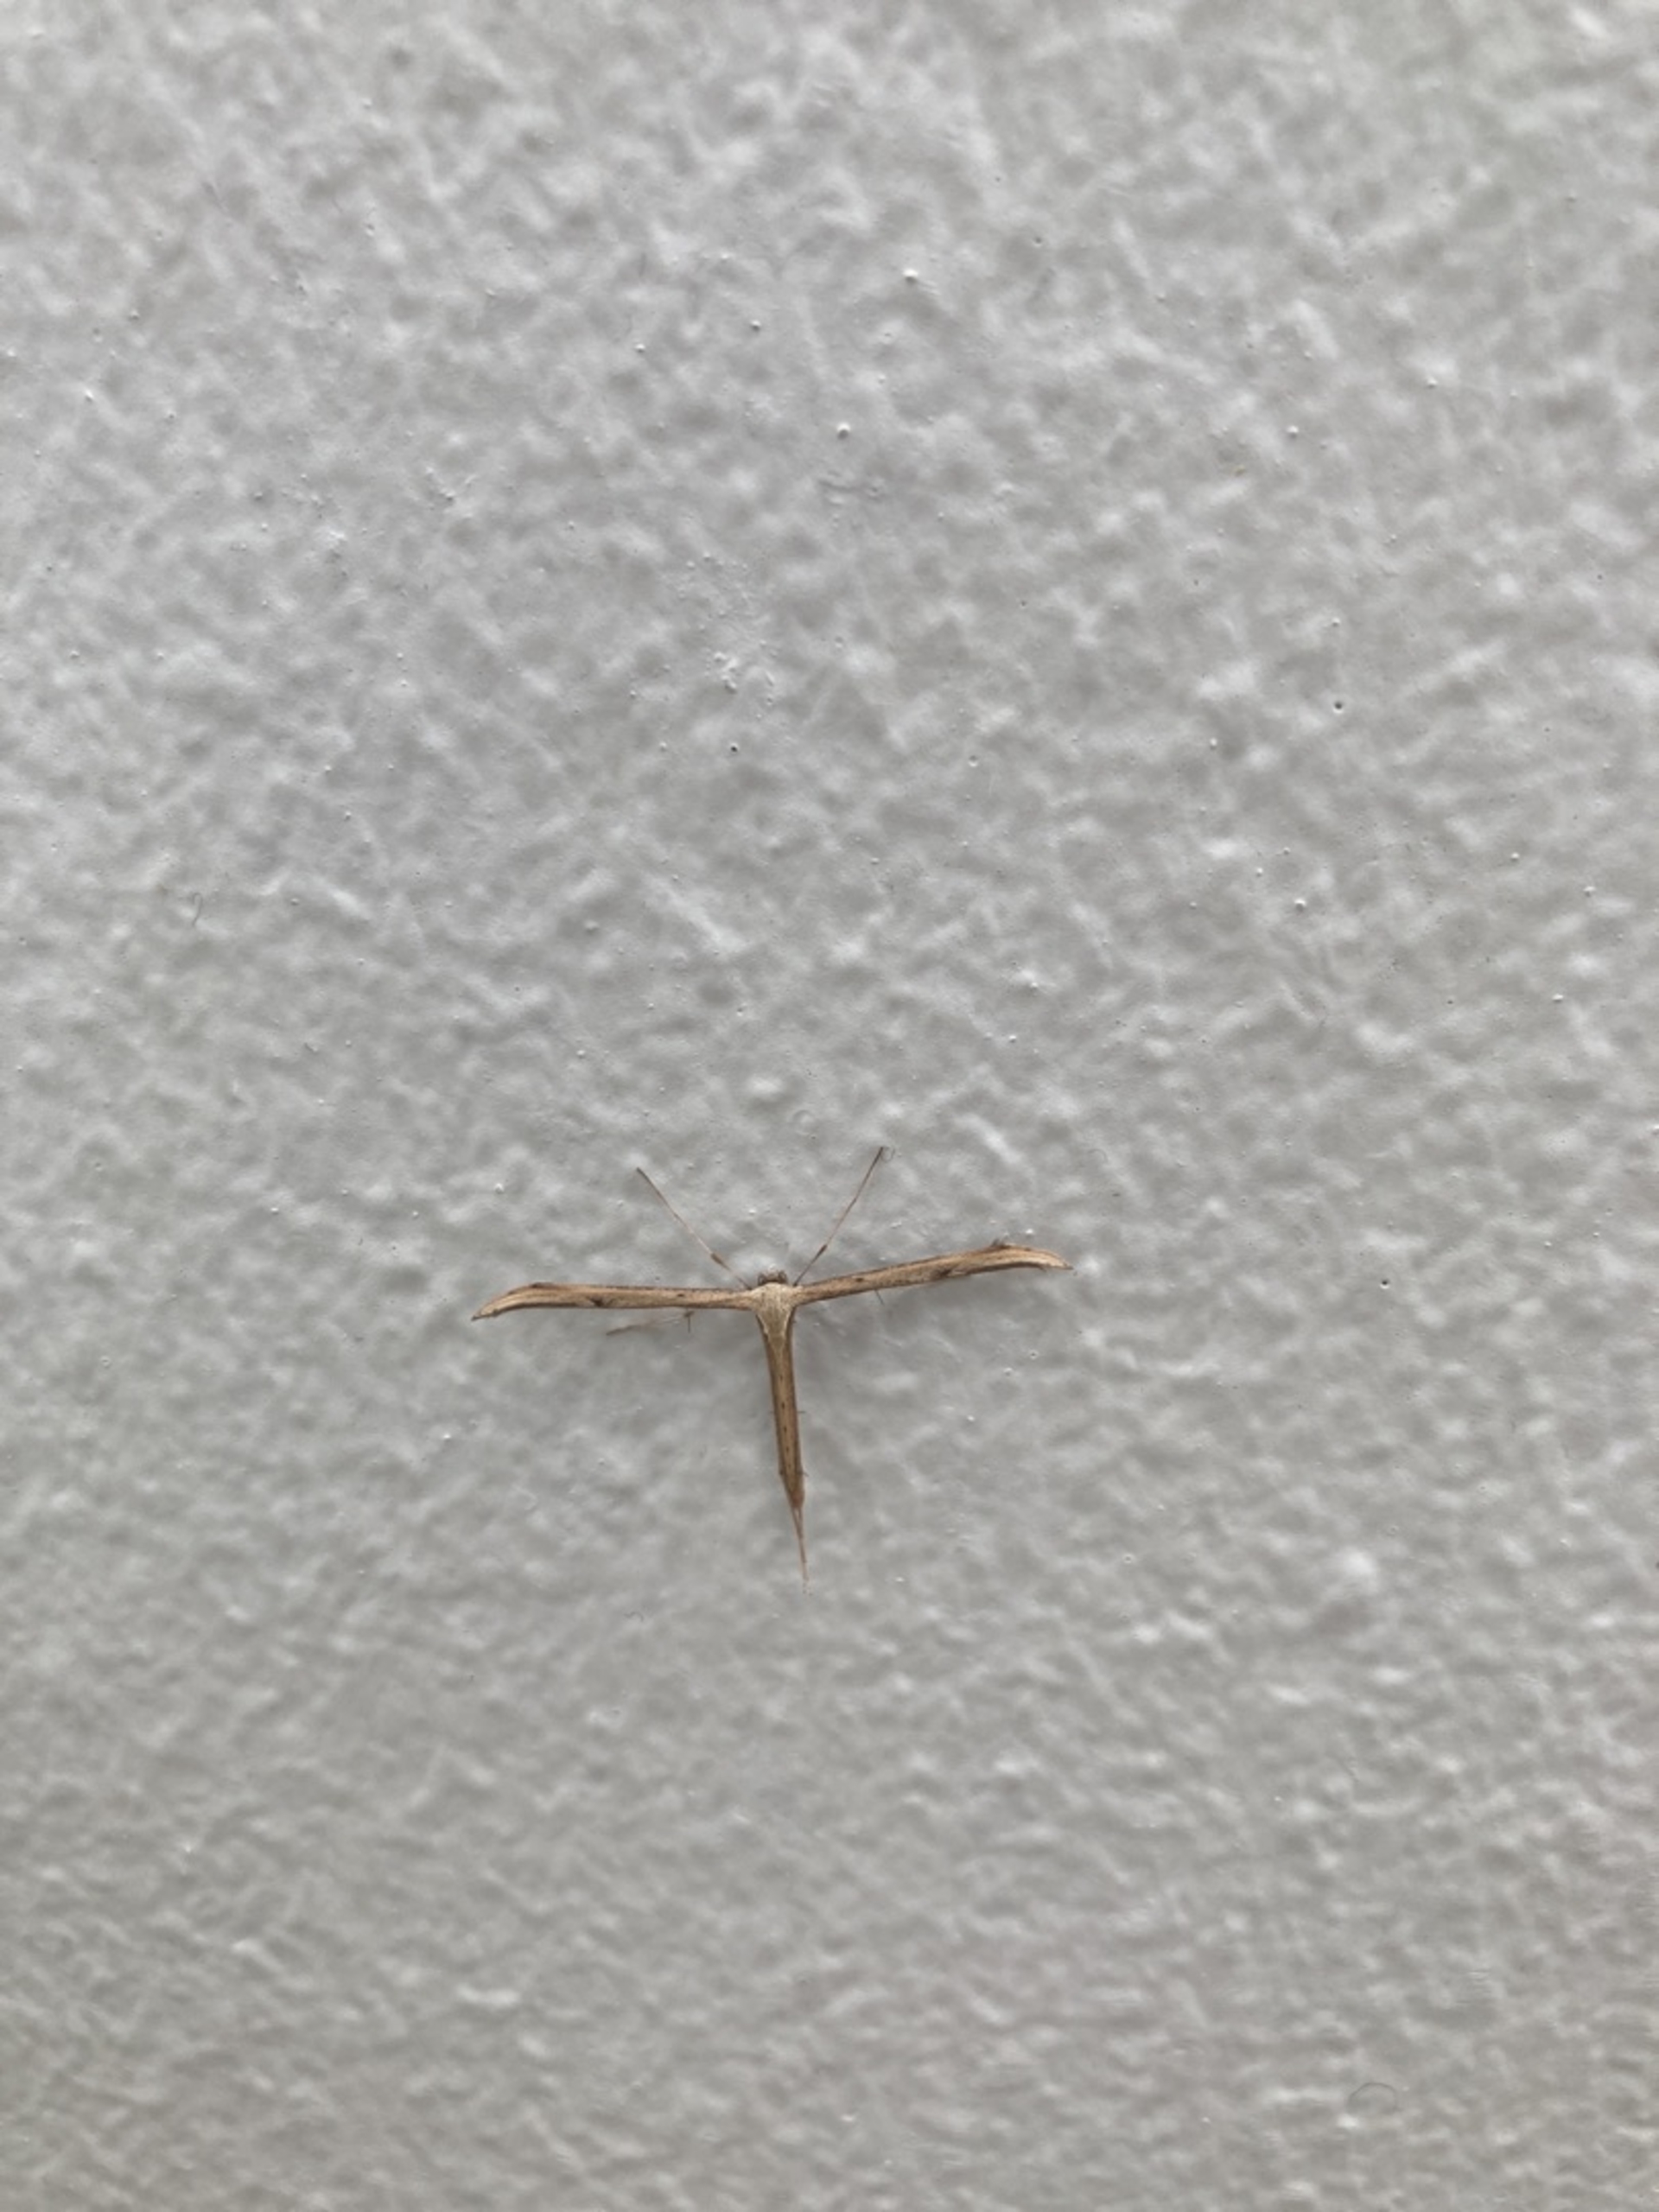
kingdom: Animalia
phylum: Arthropoda
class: Insecta
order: Lepidoptera
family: Pterophoridae
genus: Emmelina
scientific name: Emmelina monodactyla
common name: Snerlefjermøl
